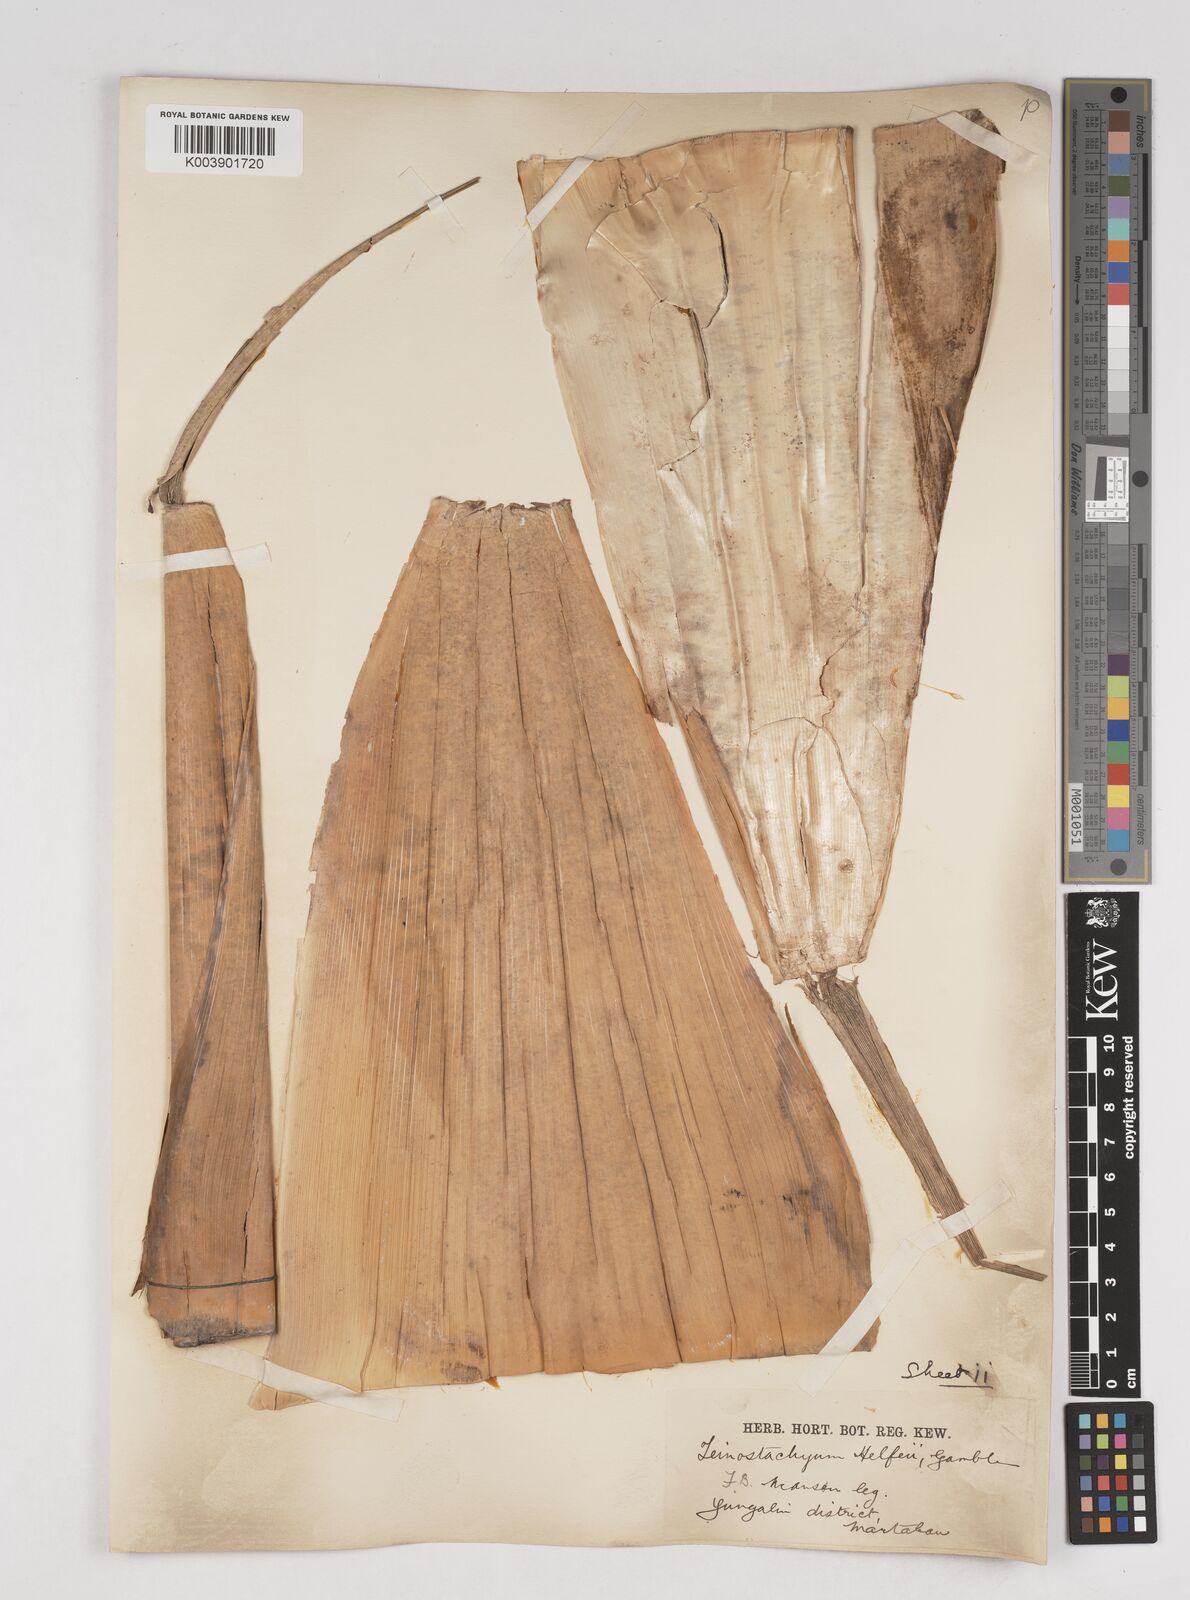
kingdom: Plantae
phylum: Tracheophyta
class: Liliopsida
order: Poales
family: Poaceae
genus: Schizostachyum
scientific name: Schizostachyum dullooa
